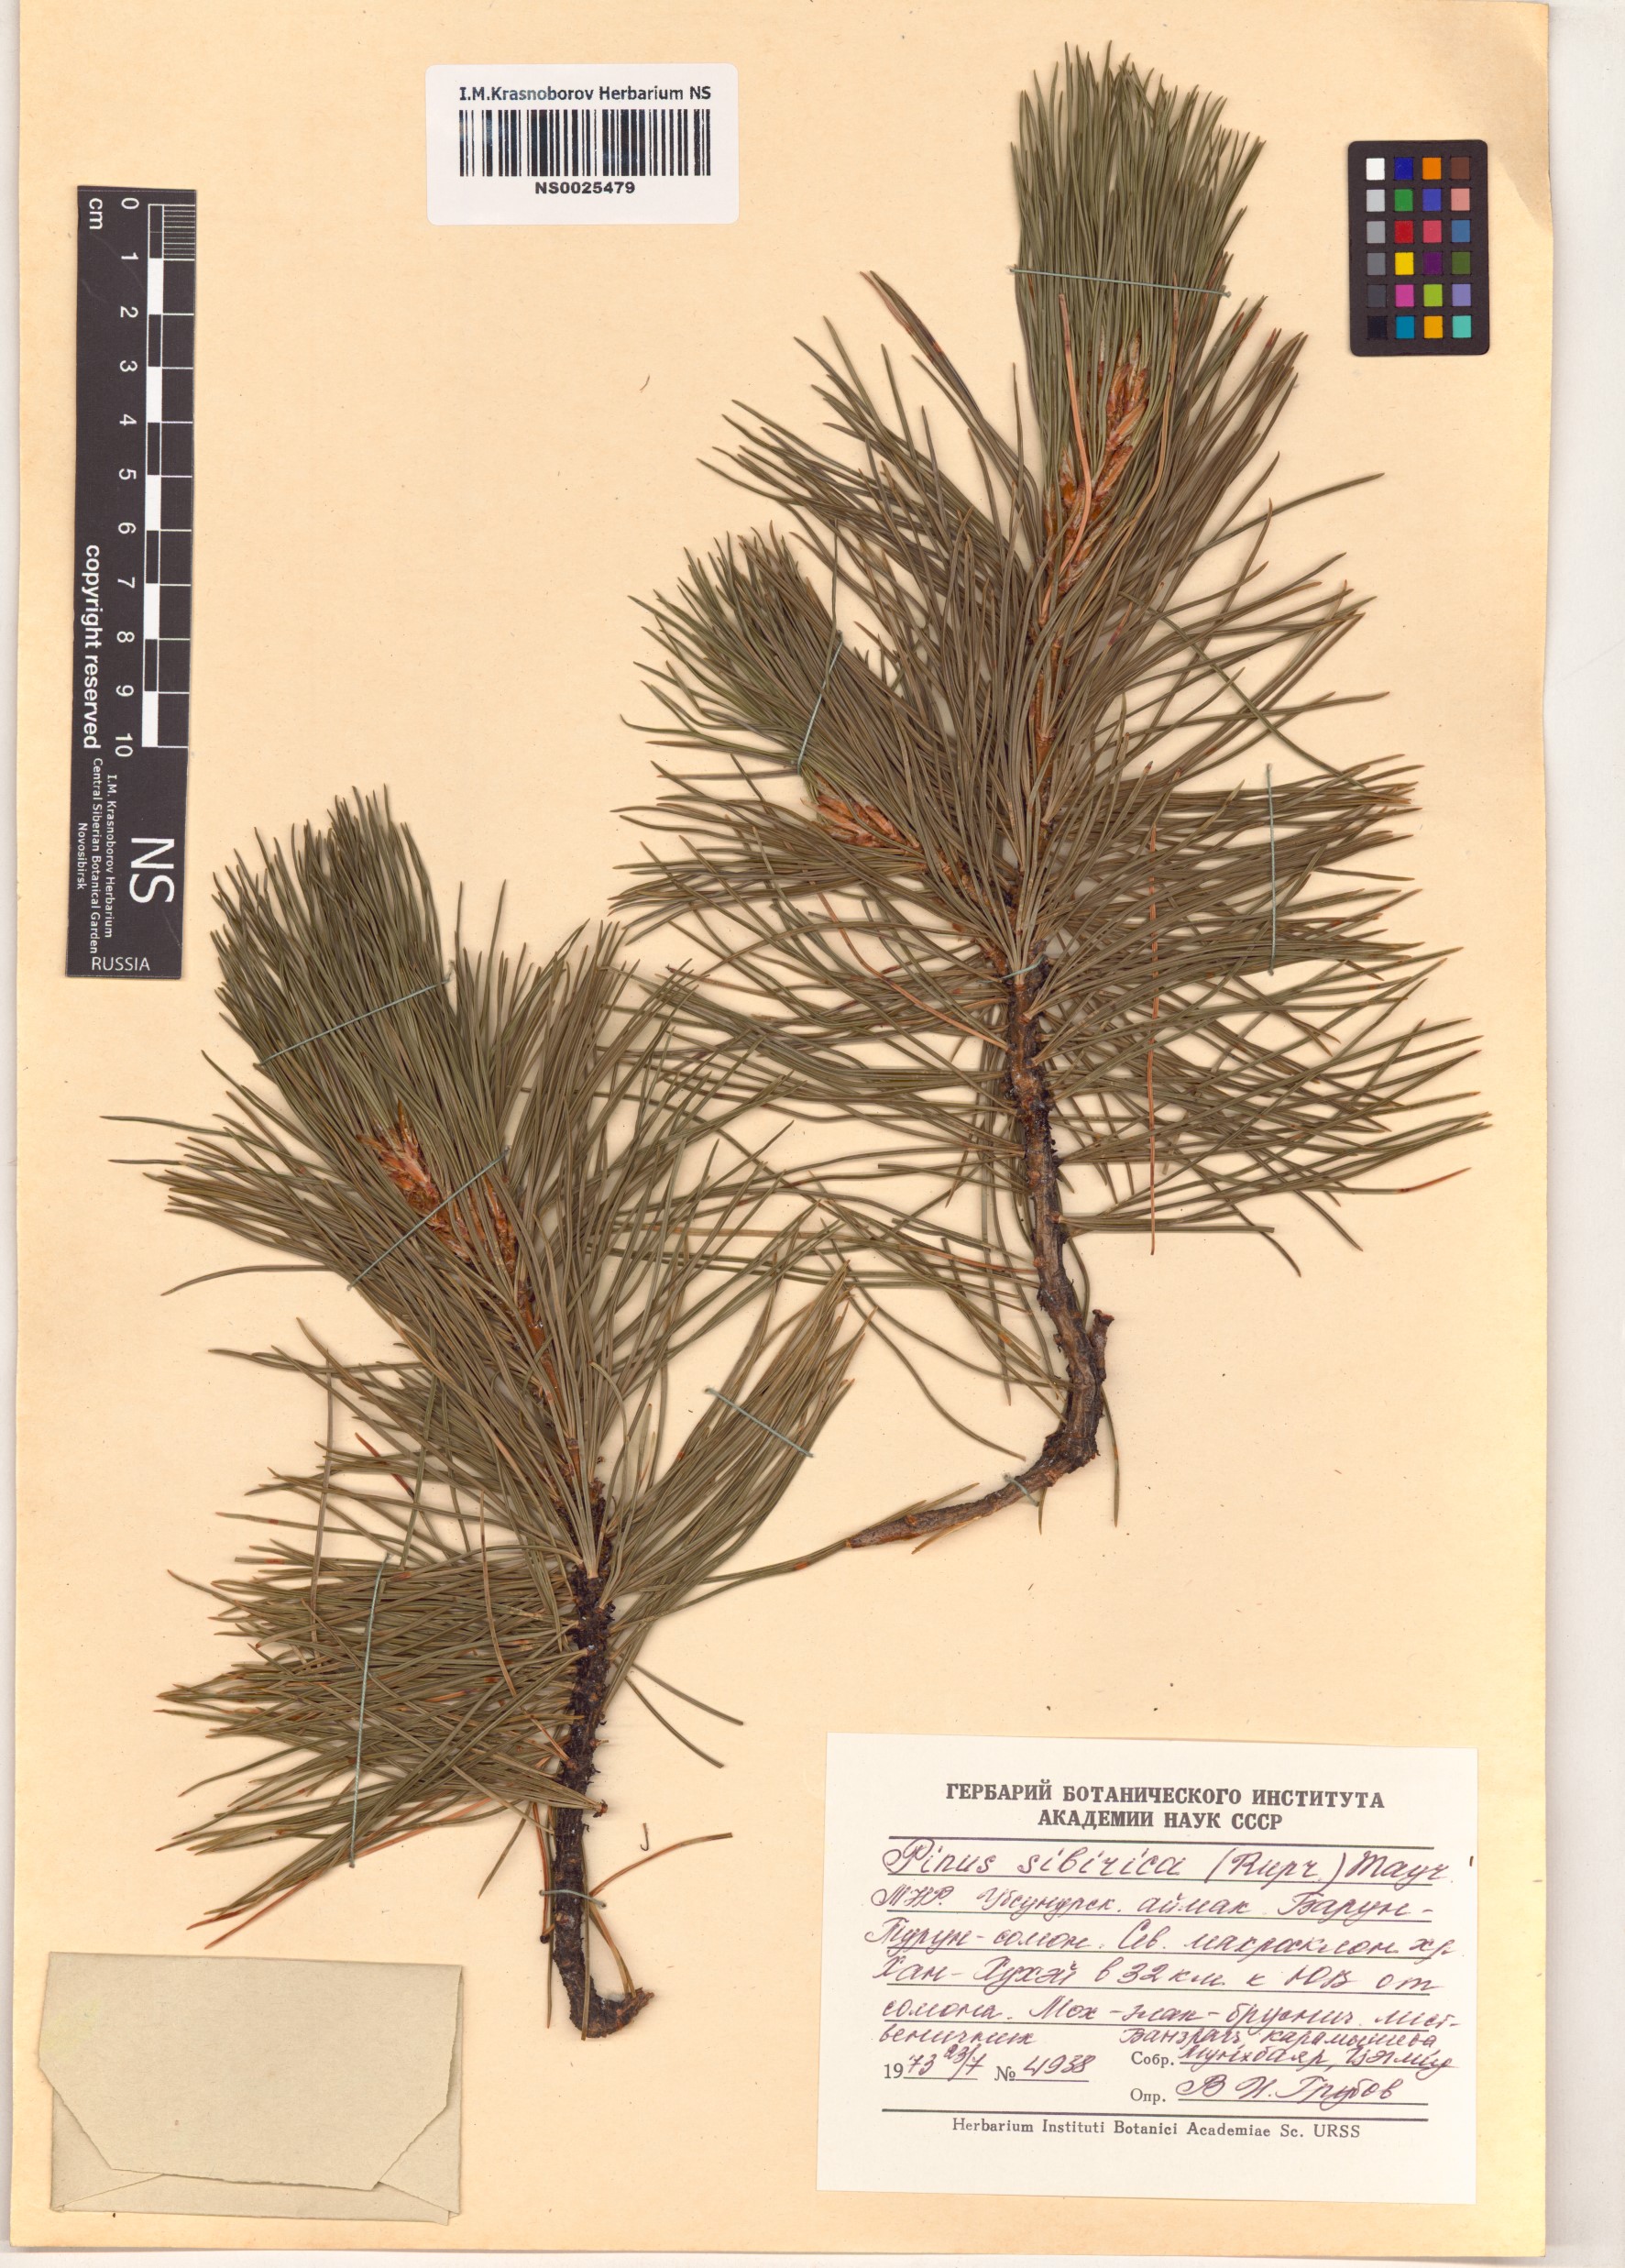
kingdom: Plantae
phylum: Tracheophyta
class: Pinopsida
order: Pinales
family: Pinaceae
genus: Pinus
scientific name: Pinus sibirica
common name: Siberian pine
